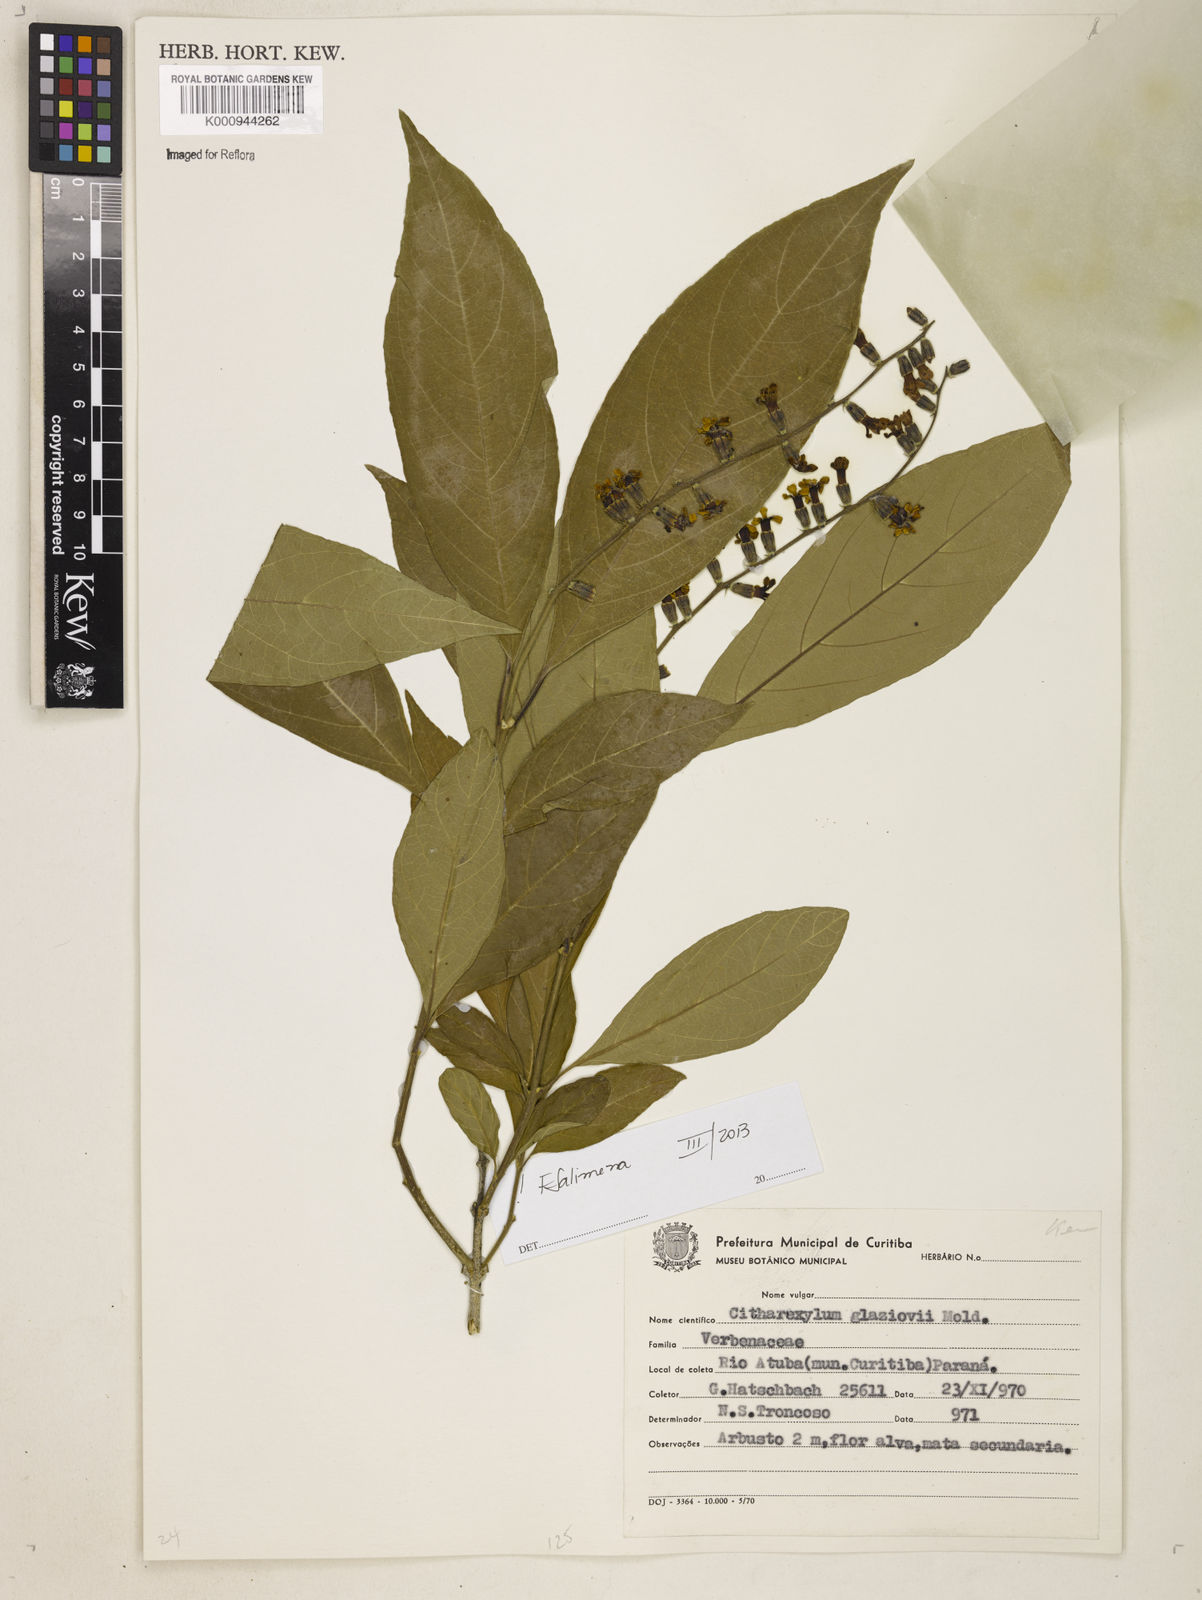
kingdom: Plantae
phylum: Tracheophyta
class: Magnoliopsida
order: Lamiales
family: Verbenaceae
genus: Citharexylum
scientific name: Citharexylum myrianthum
